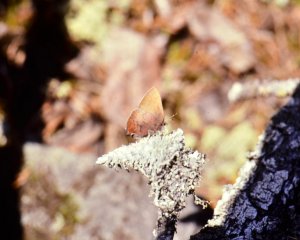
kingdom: Animalia
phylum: Arthropoda
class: Insecta
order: Lepidoptera
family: Lycaenidae
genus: Incisalia
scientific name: Incisalia irioides
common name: Brown Elfin
